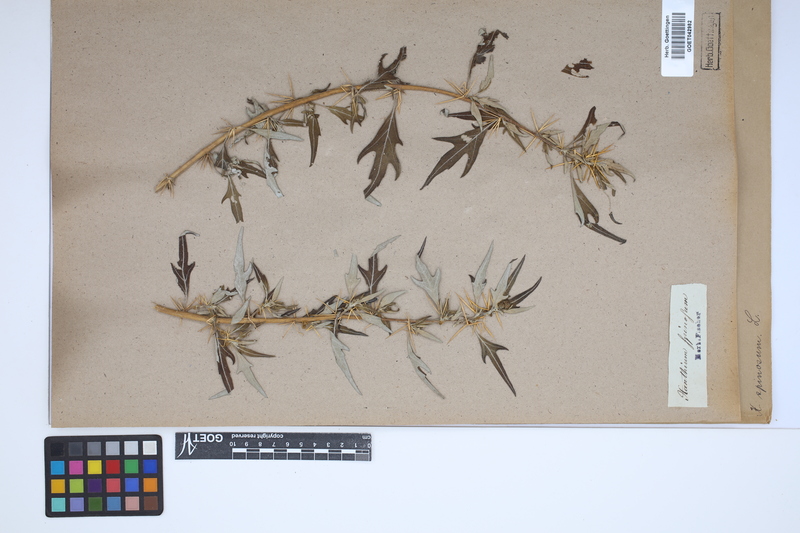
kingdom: Plantae
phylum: Tracheophyta
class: Magnoliopsida
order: Asterales
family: Asteraceae
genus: Xanthium
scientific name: Xanthium spinosum
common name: Spiny cocklebur
